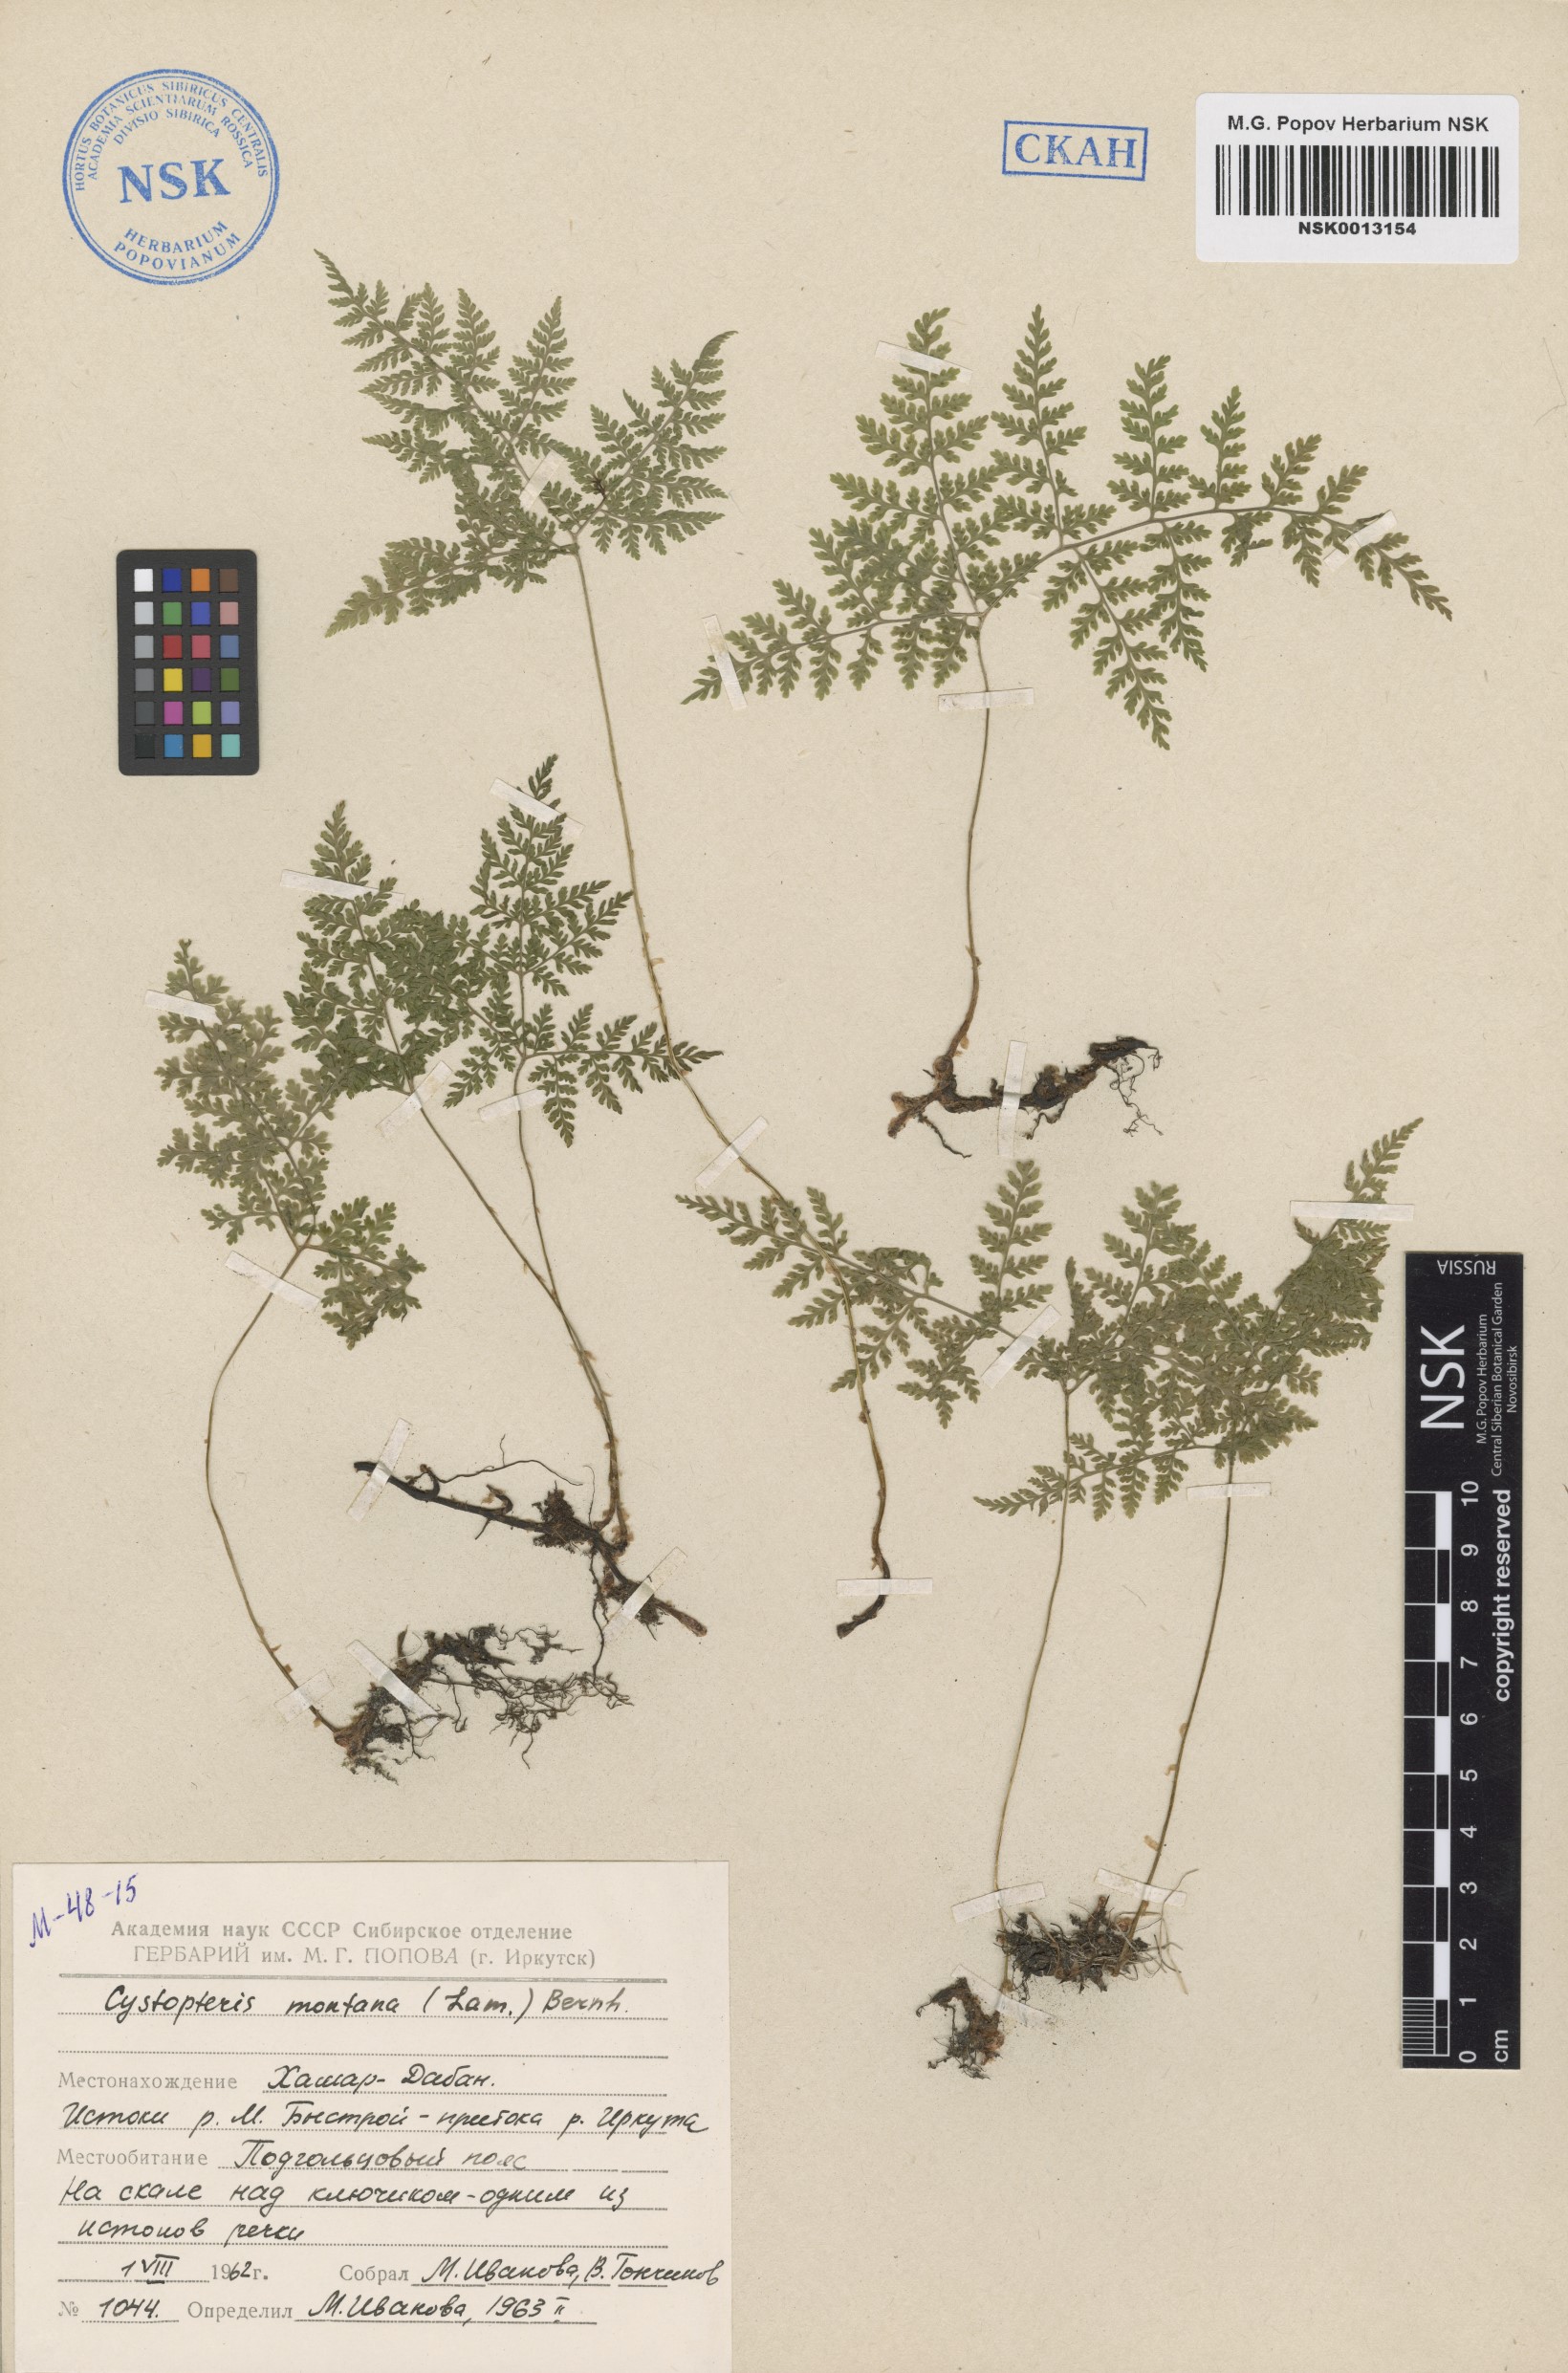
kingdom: Plantae
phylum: Tracheophyta
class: Polypodiopsida
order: Polypodiales
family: Cystopteridaceae
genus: Cystopteris
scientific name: Cystopteris montana
